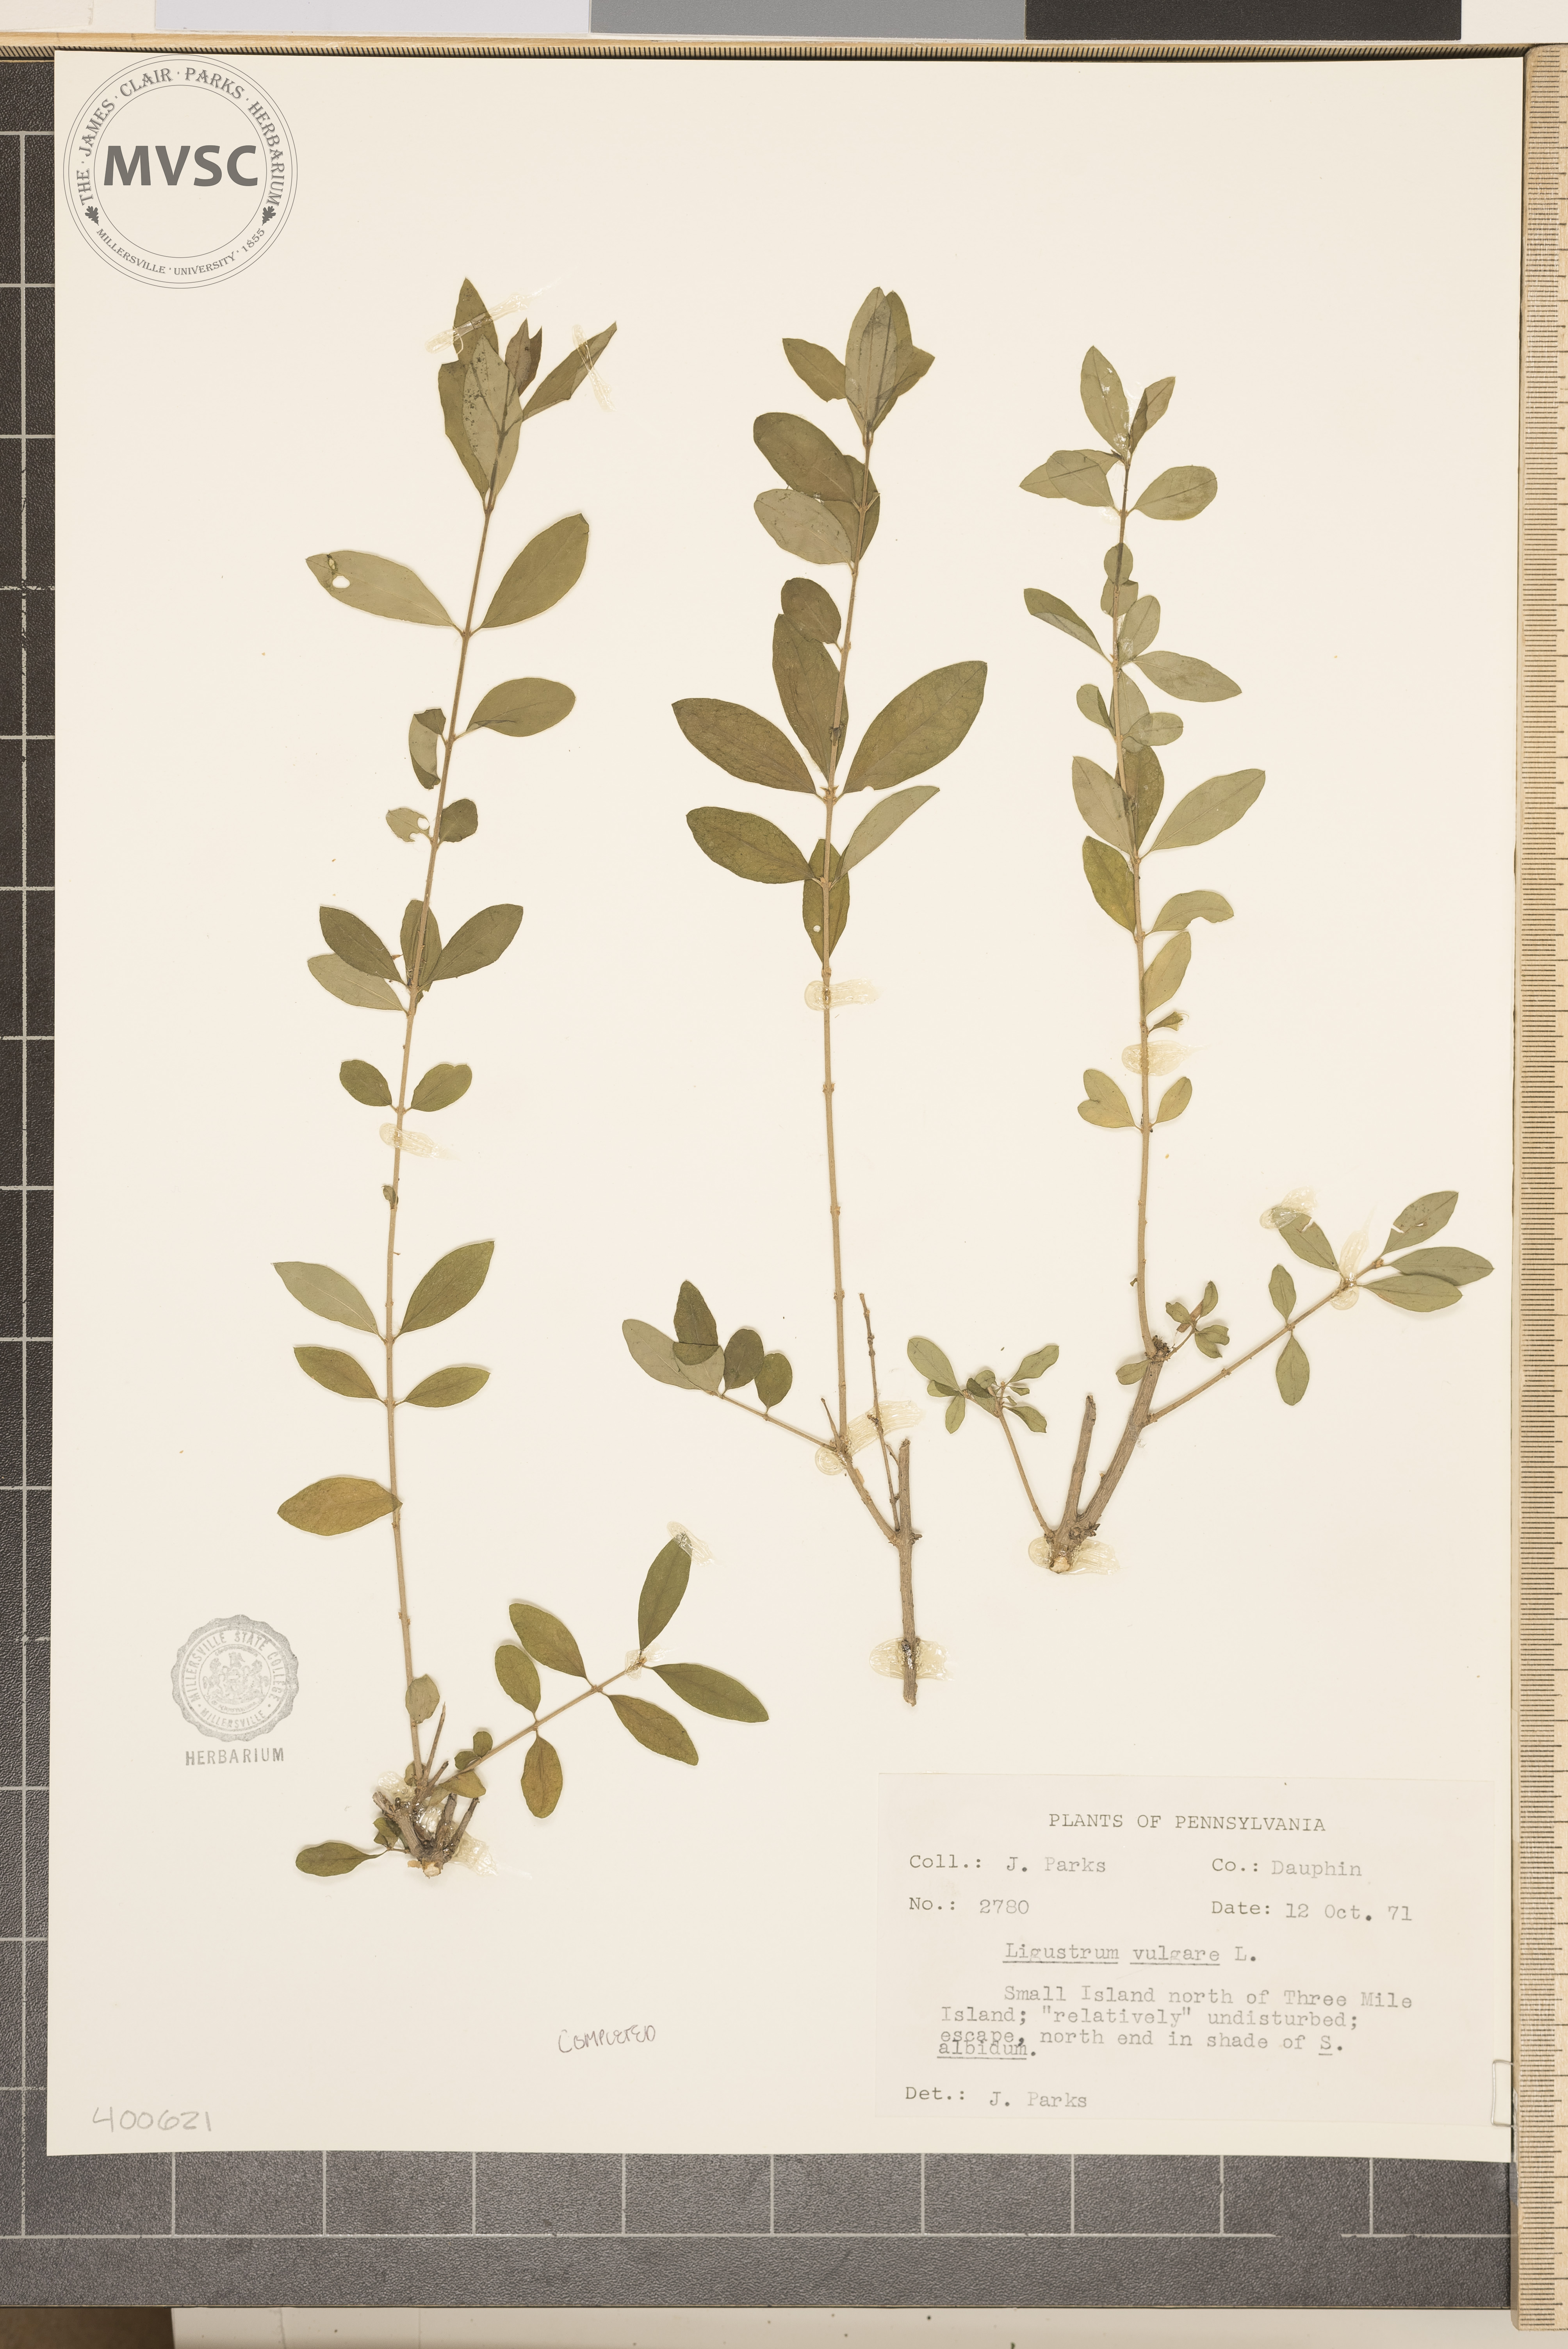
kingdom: Plantae
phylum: Tracheophyta
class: Magnoliopsida
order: Lamiales
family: Oleaceae
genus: Ligustrum
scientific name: Ligustrum vulgare
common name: European privet
